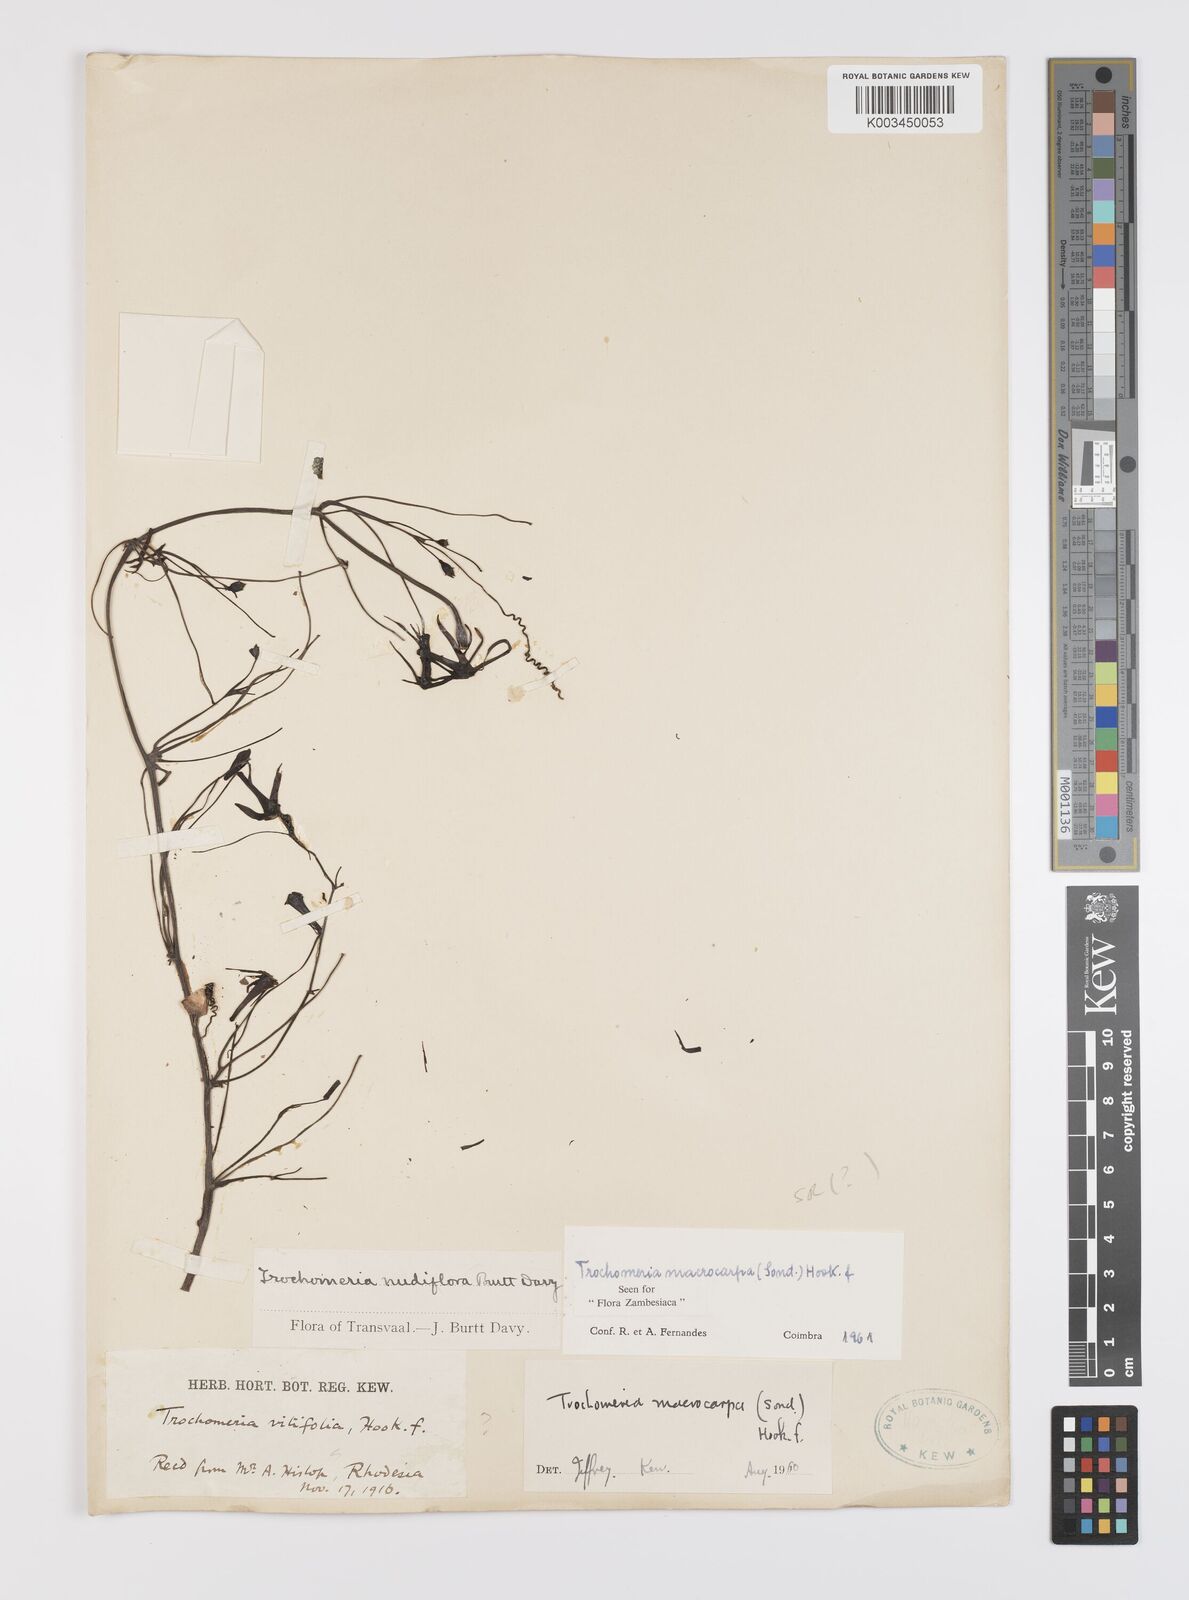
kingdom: Plantae
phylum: Tracheophyta
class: Magnoliopsida
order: Cucurbitales
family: Cucurbitaceae
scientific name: Cucurbitaceae
